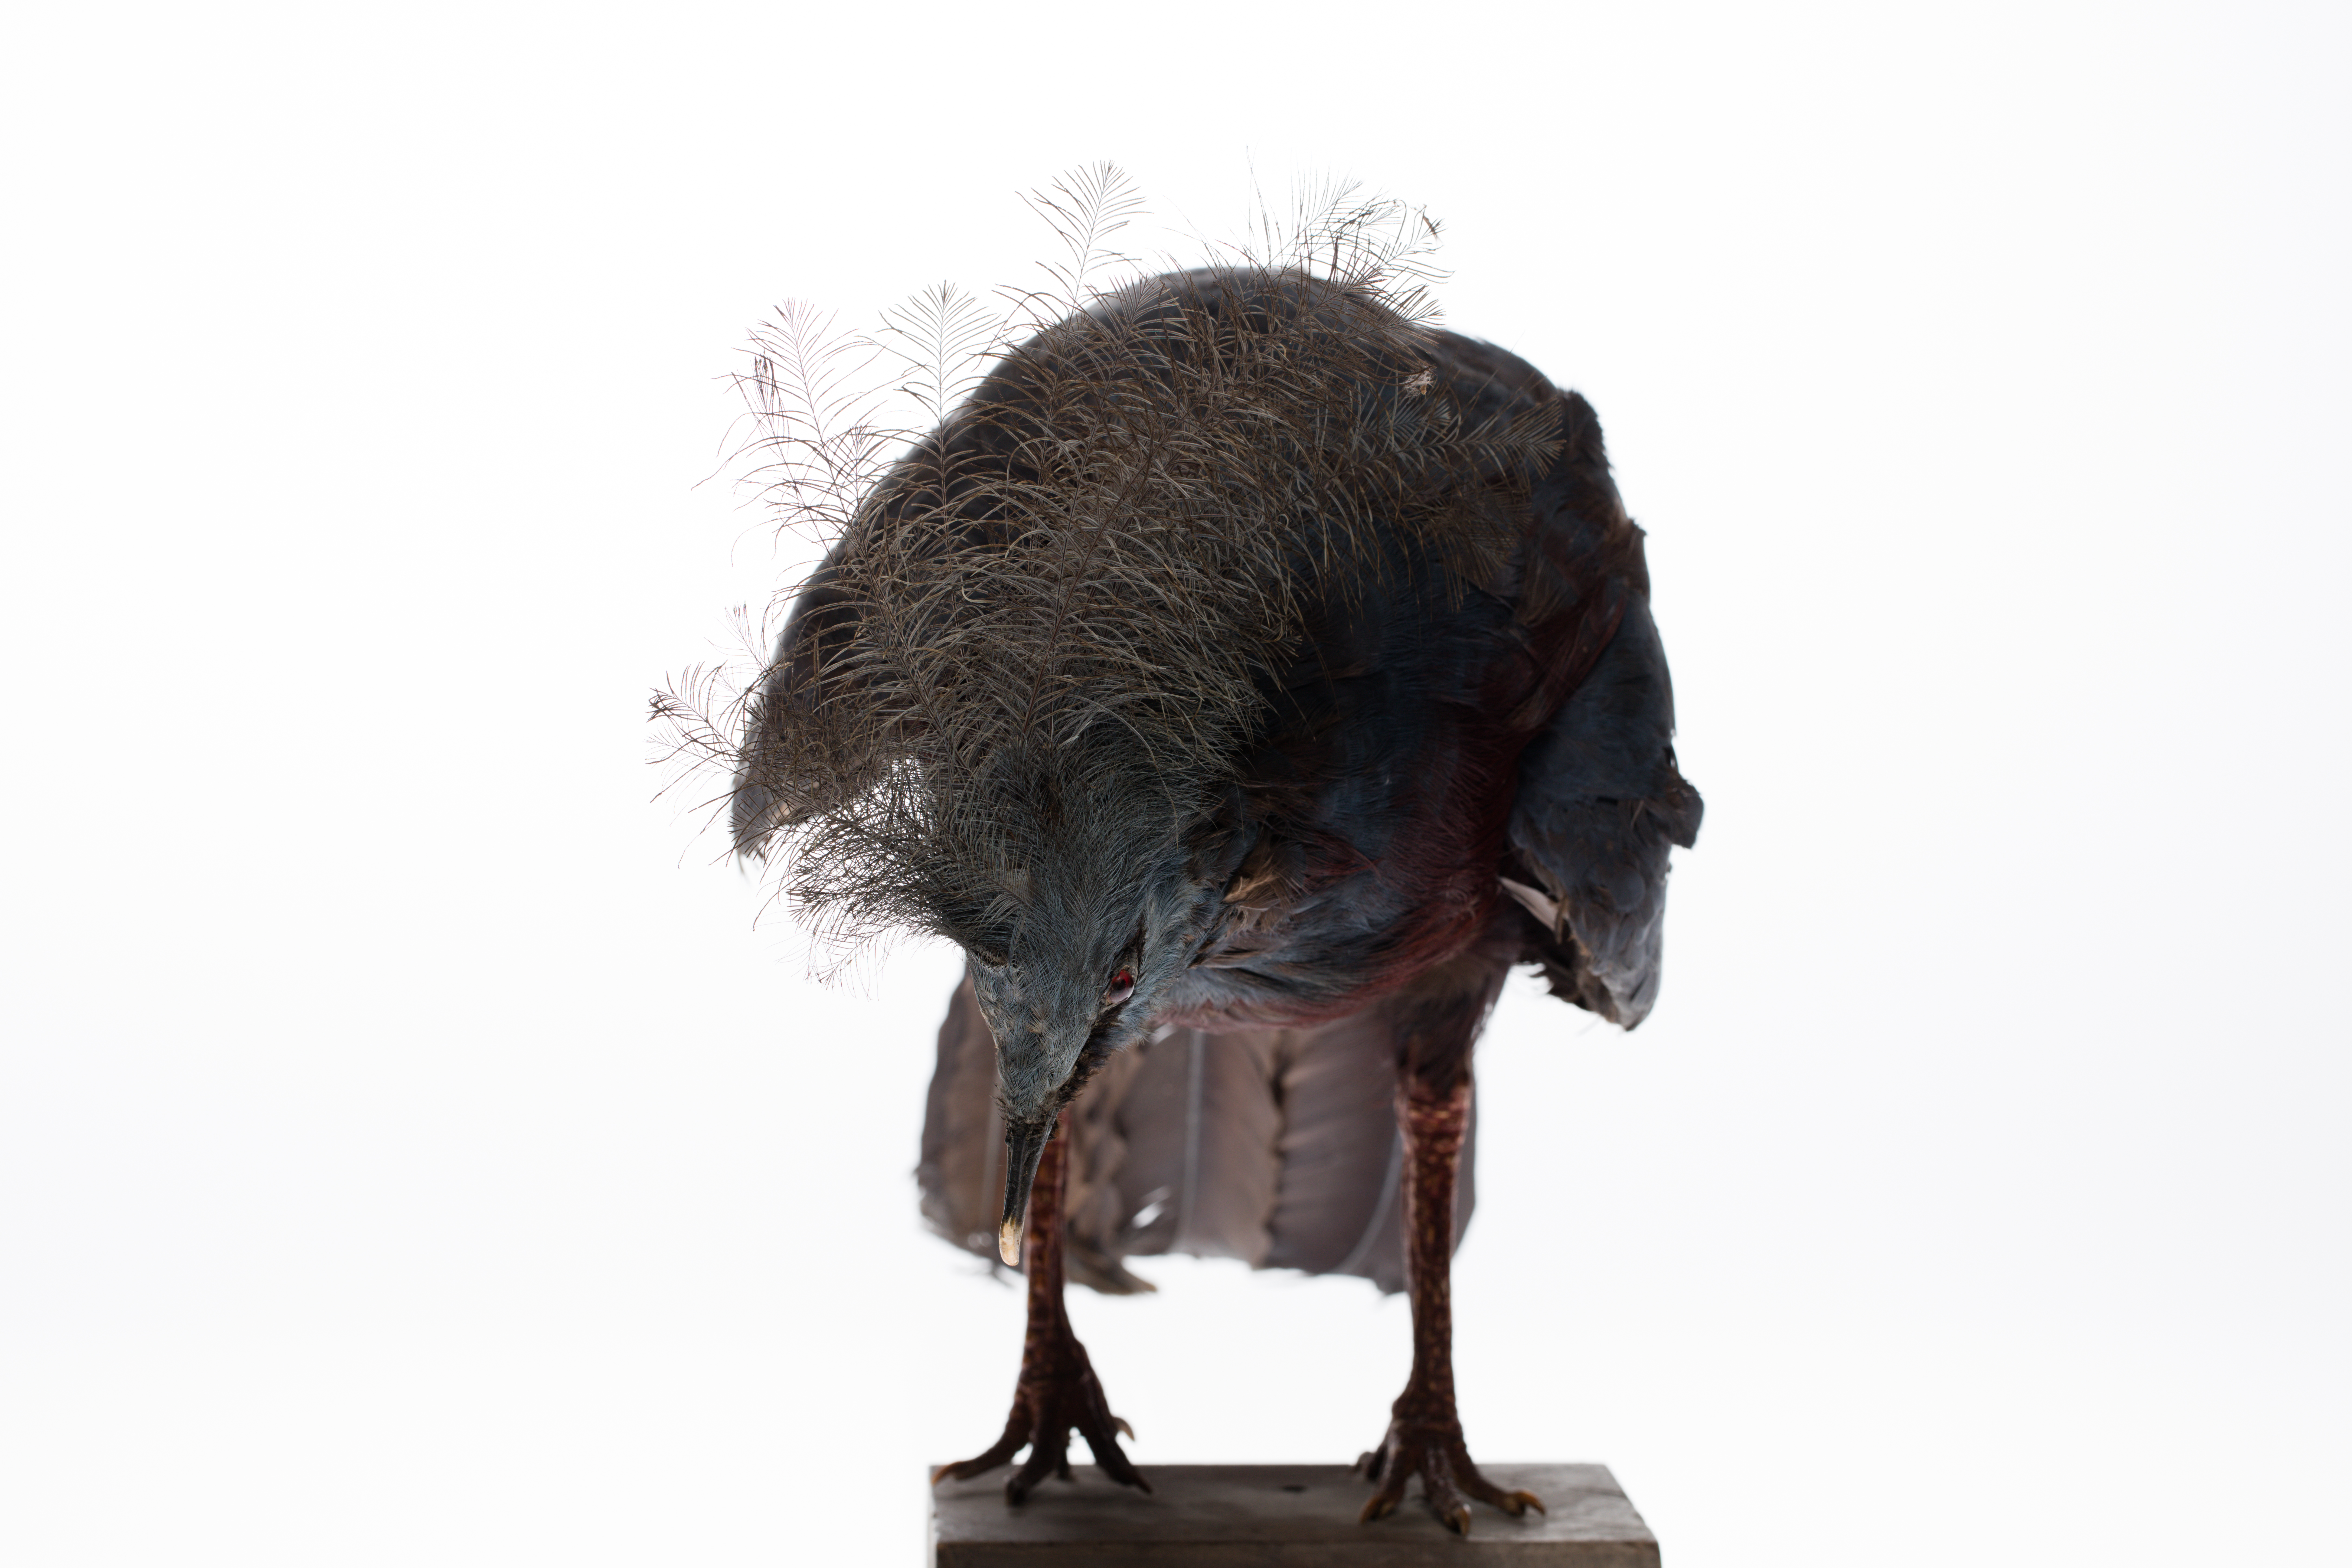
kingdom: Animalia
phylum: Chordata
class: Aves
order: Columbiformes
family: Columbidae
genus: Goura
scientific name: Goura victoria
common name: Victoria crowned pigeon
